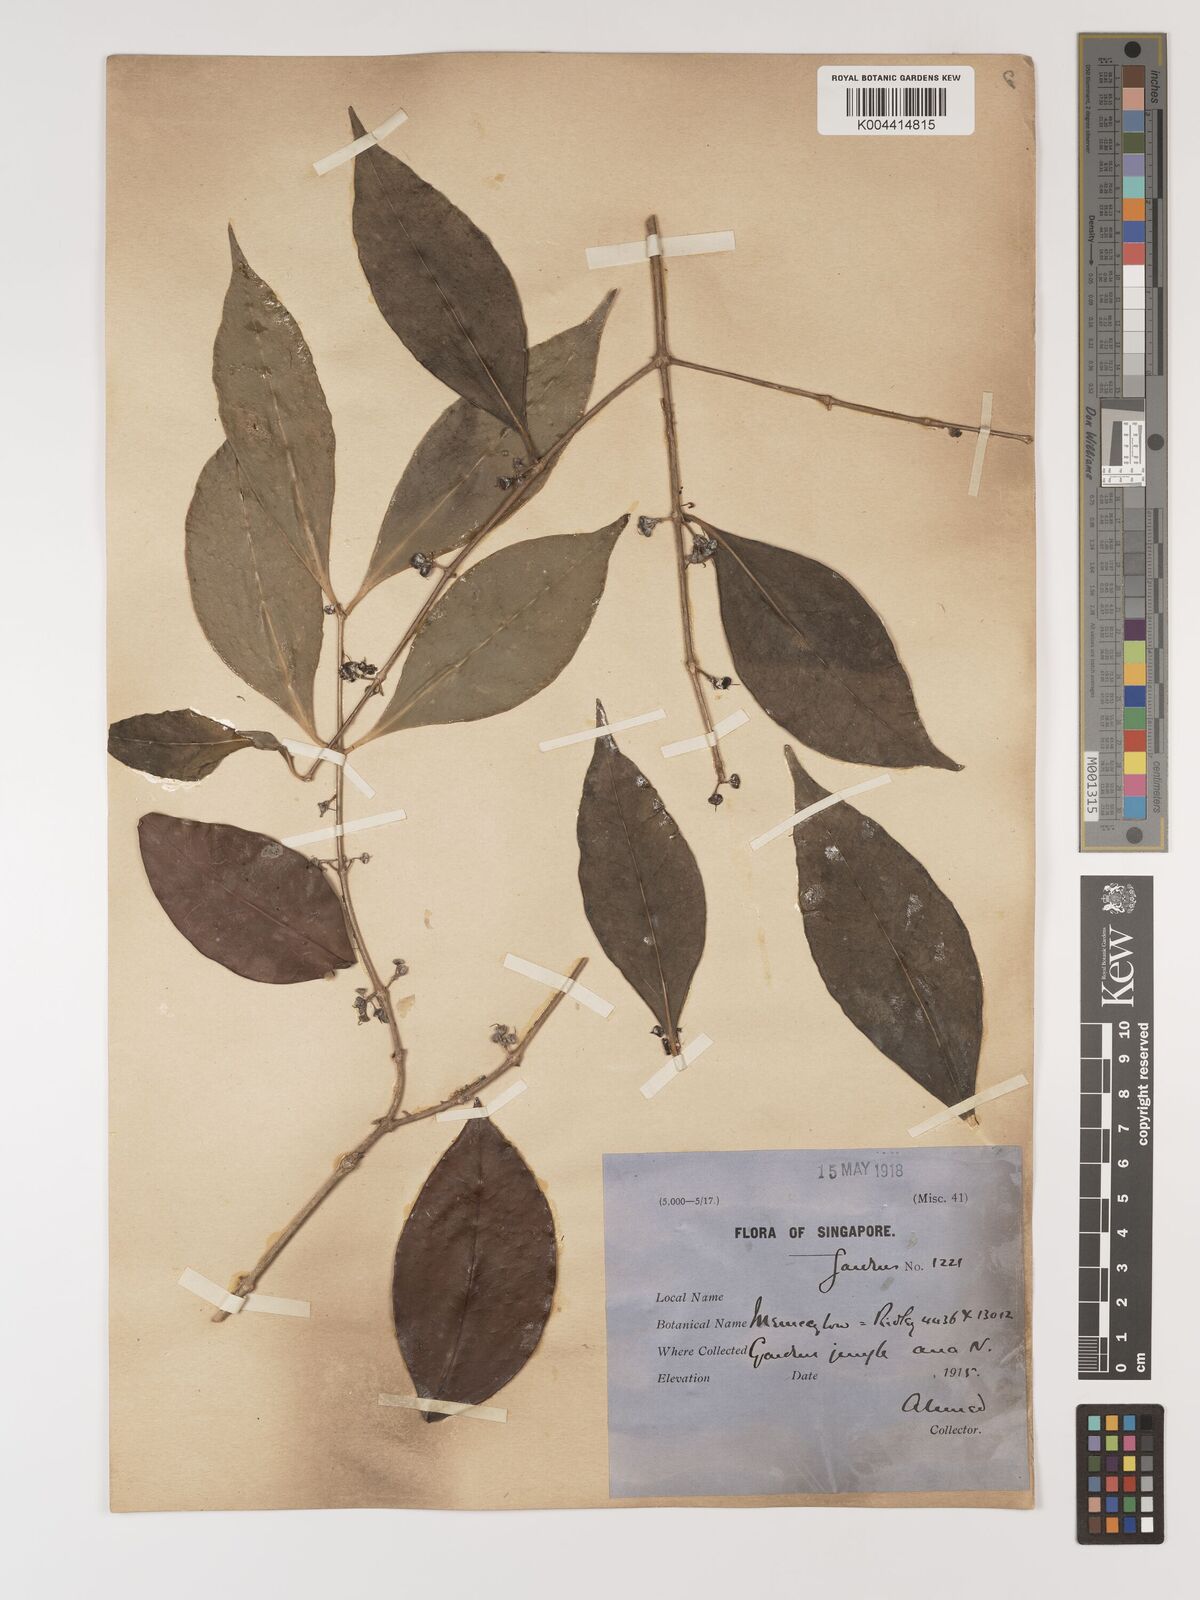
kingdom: Plantae
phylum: Tracheophyta
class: Magnoliopsida
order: Myrtales
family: Melastomataceae
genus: Memecylon
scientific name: Memecylon cantleyi
